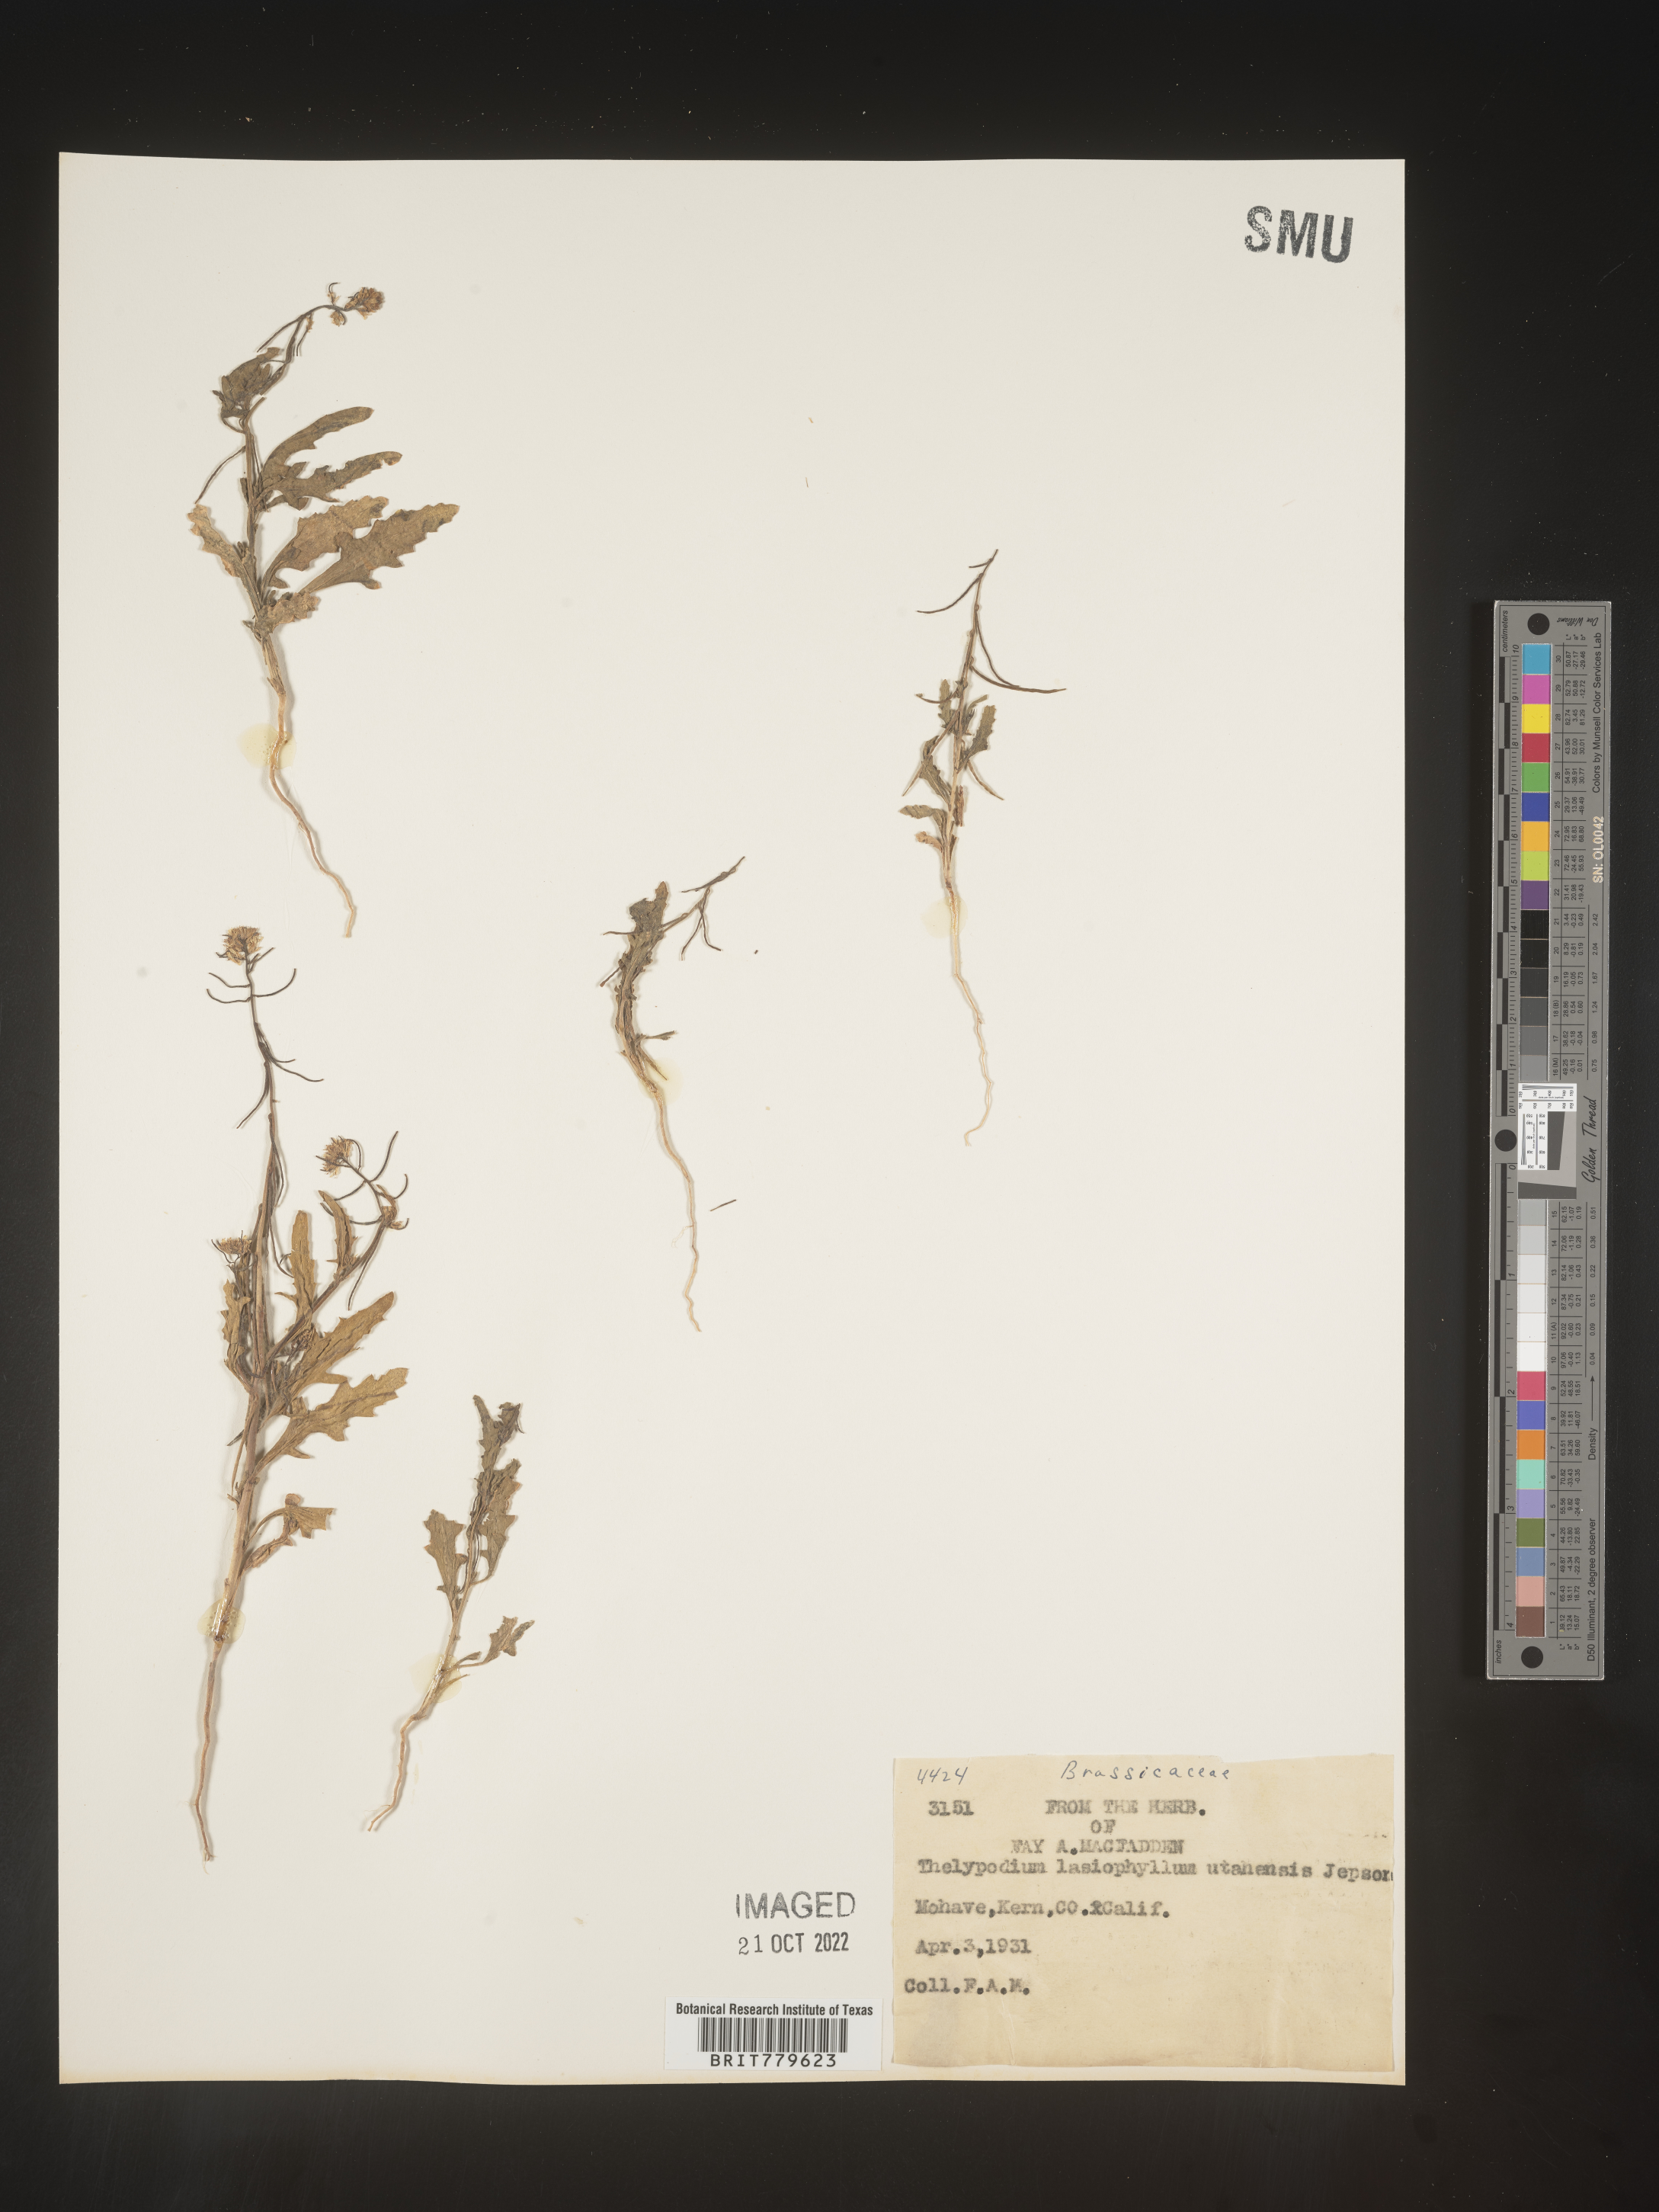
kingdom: Plantae
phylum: Tracheophyta
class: Magnoliopsida
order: Brassicales
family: Brassicaceae
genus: Thelypodium
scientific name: Thelypodium
